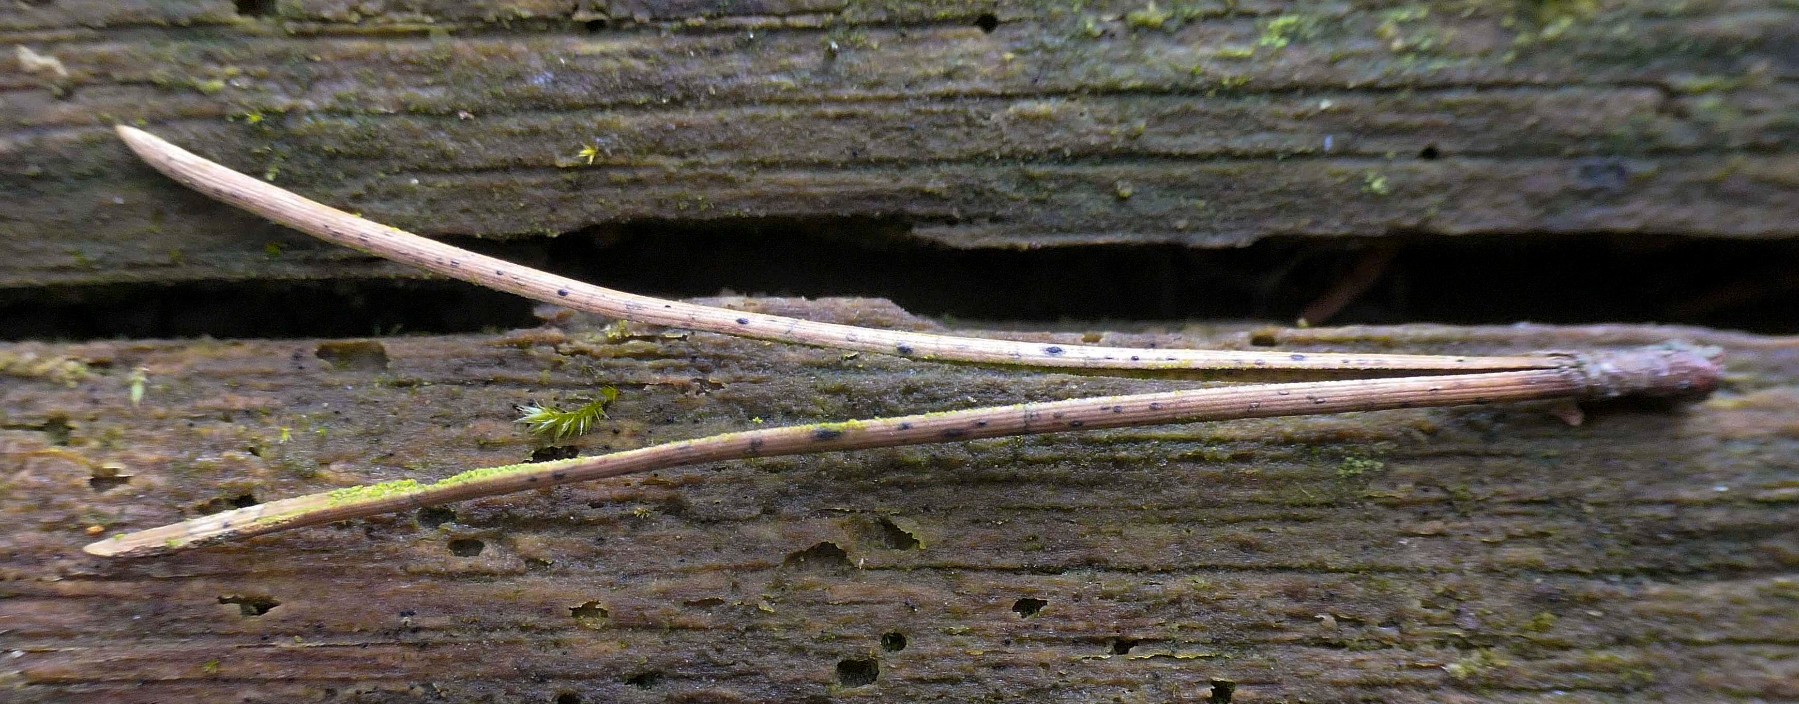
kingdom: Fungi
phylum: Ascomycota
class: Leotiomycetes
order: Rhytismatales
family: Rhytismataceae
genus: Lophodermium
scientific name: Lophodermium pinastri
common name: fyrre-fureplet
